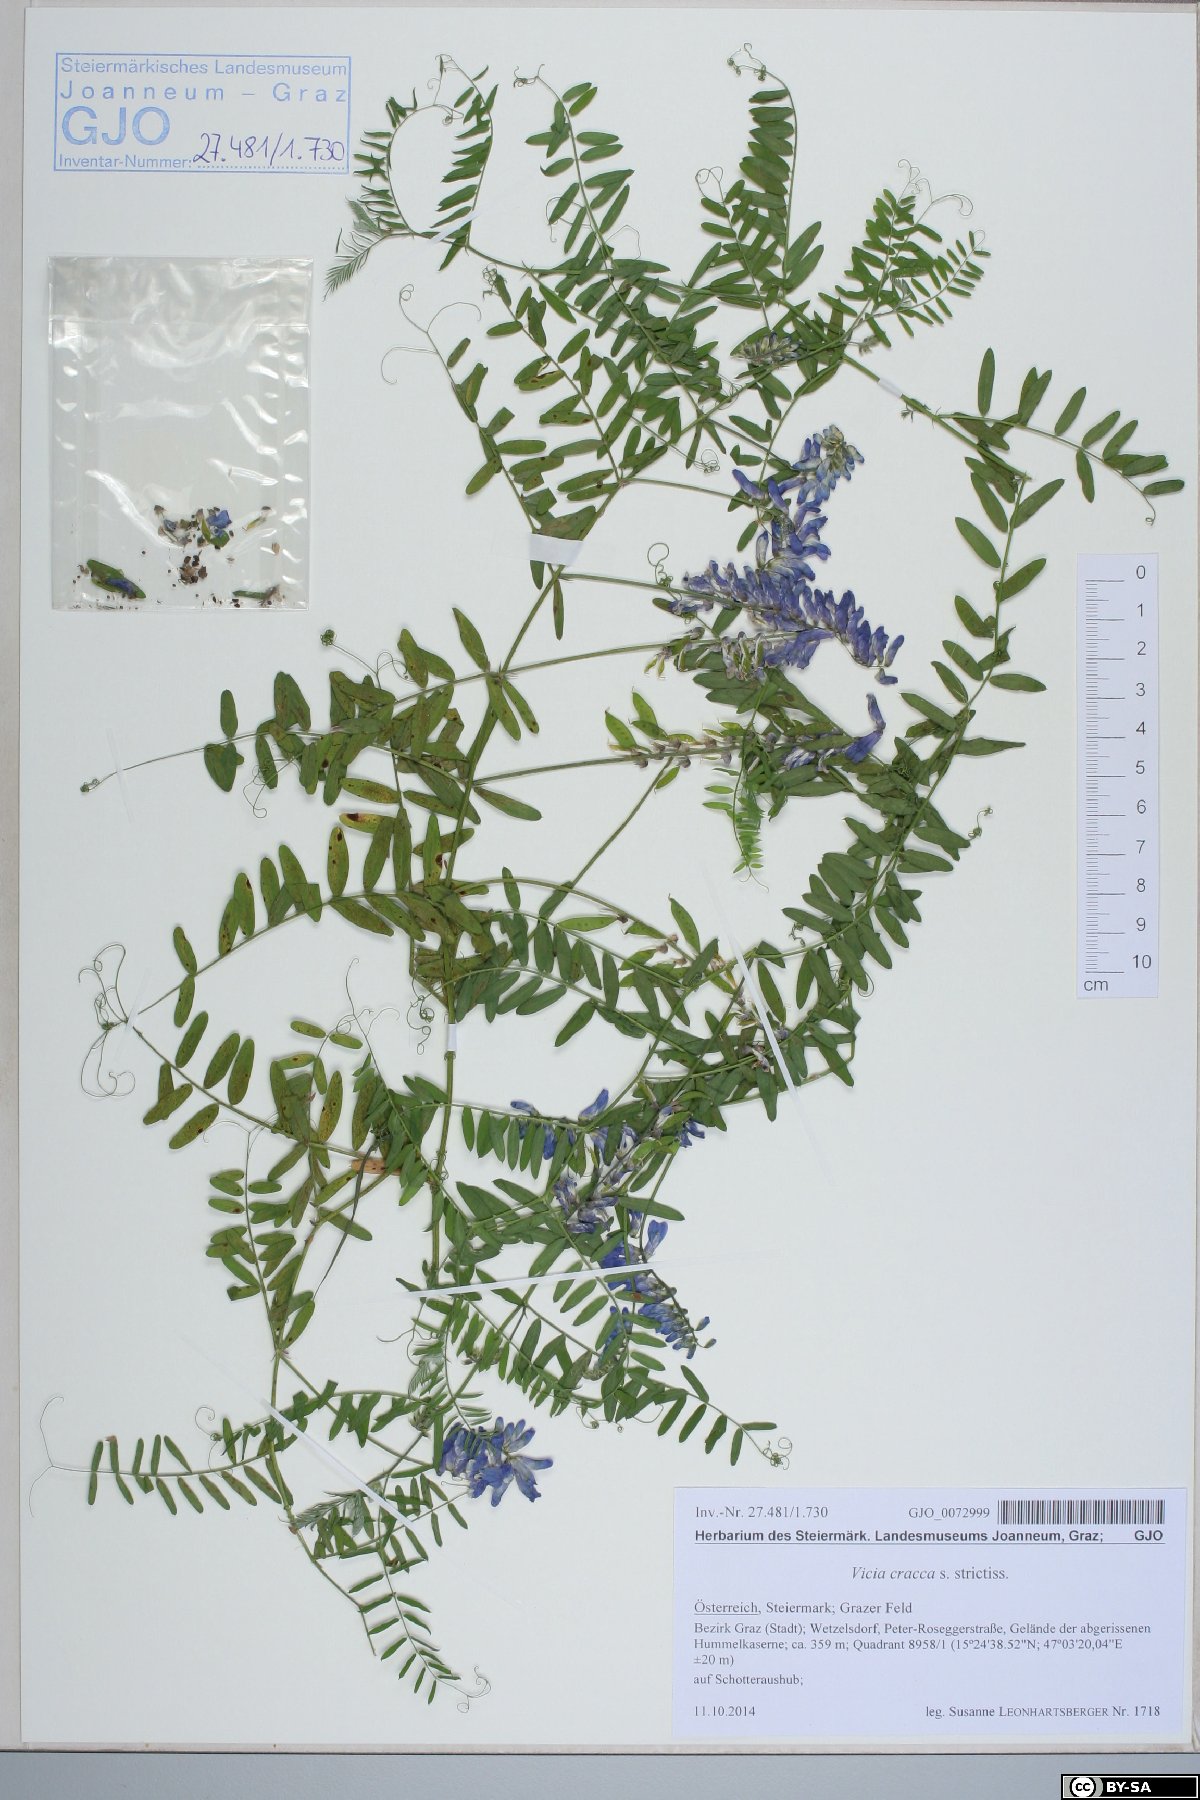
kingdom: Plantae
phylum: Tracheophyta
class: Magnoliopsida
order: Fabales
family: Fabaceae
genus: Vicia
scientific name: Vicia cracca
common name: Bird vetch
